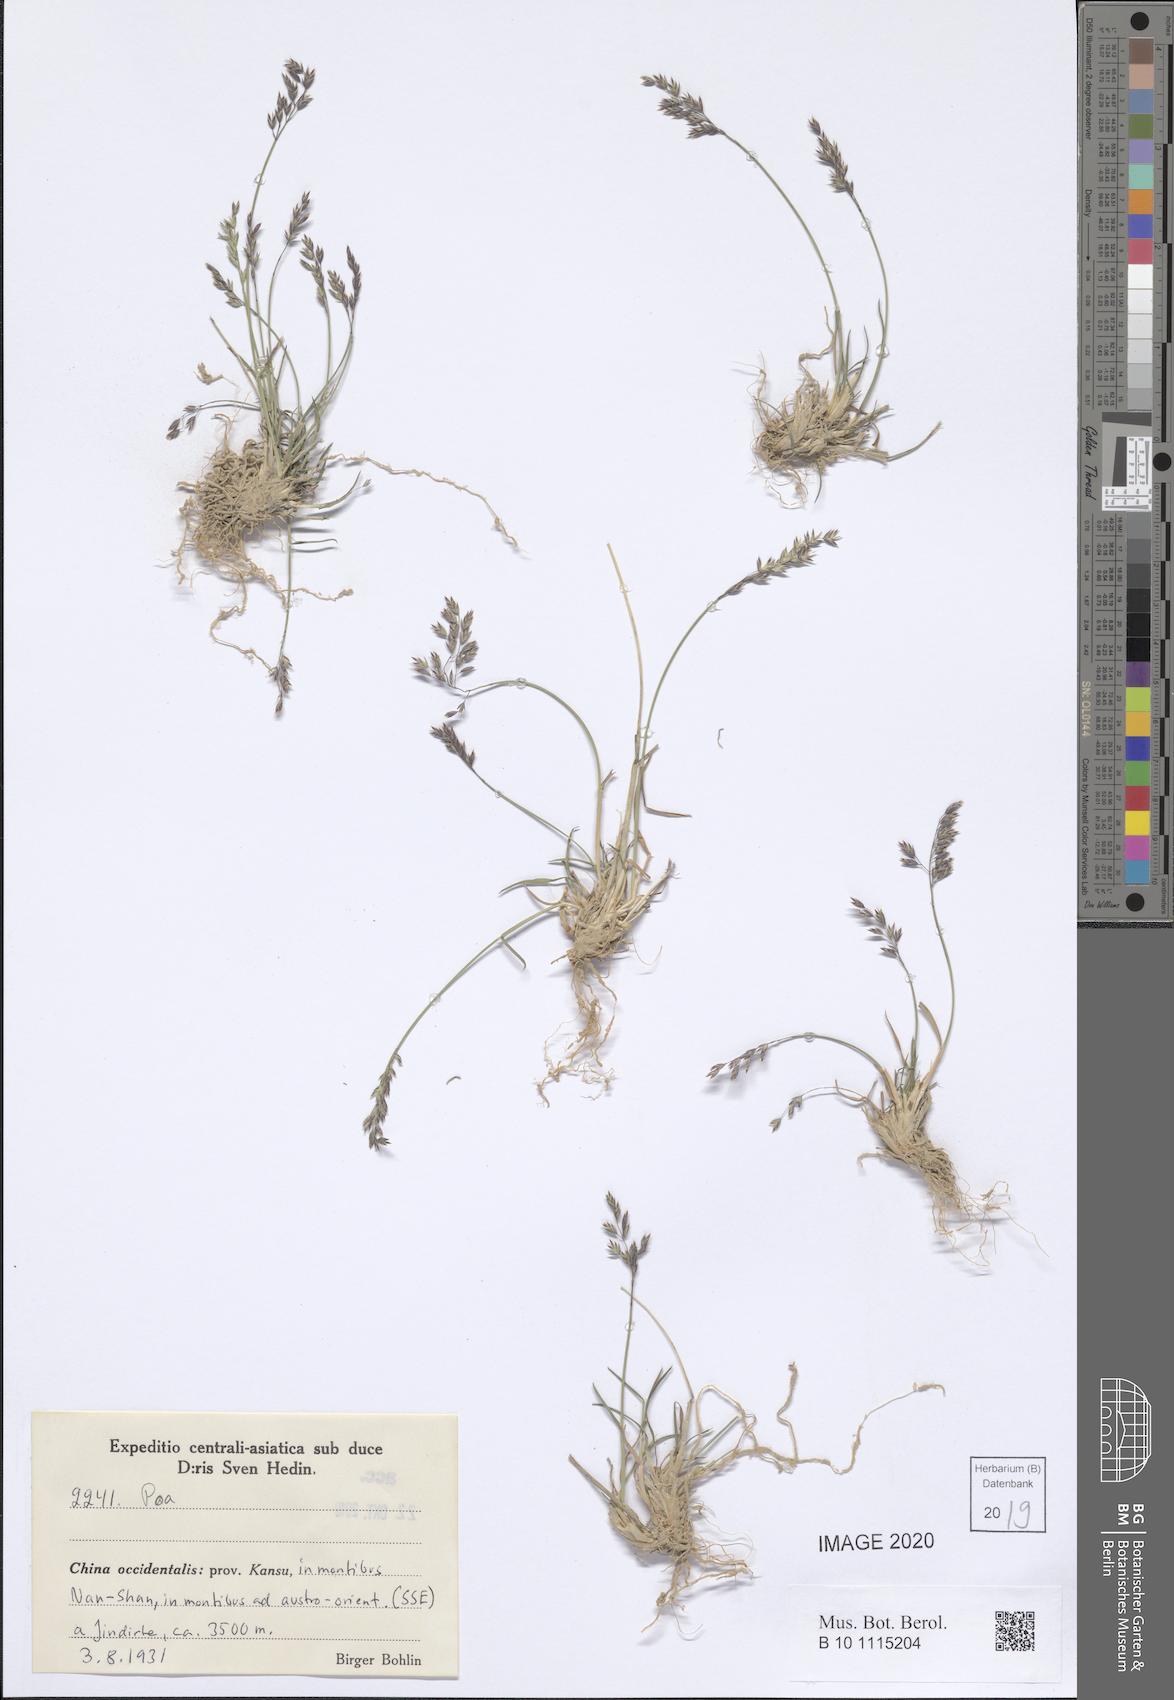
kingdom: Plantae
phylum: Tracheophyta
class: Liliopsida
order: Poales
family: Poaceae
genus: Poa
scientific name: Poa
